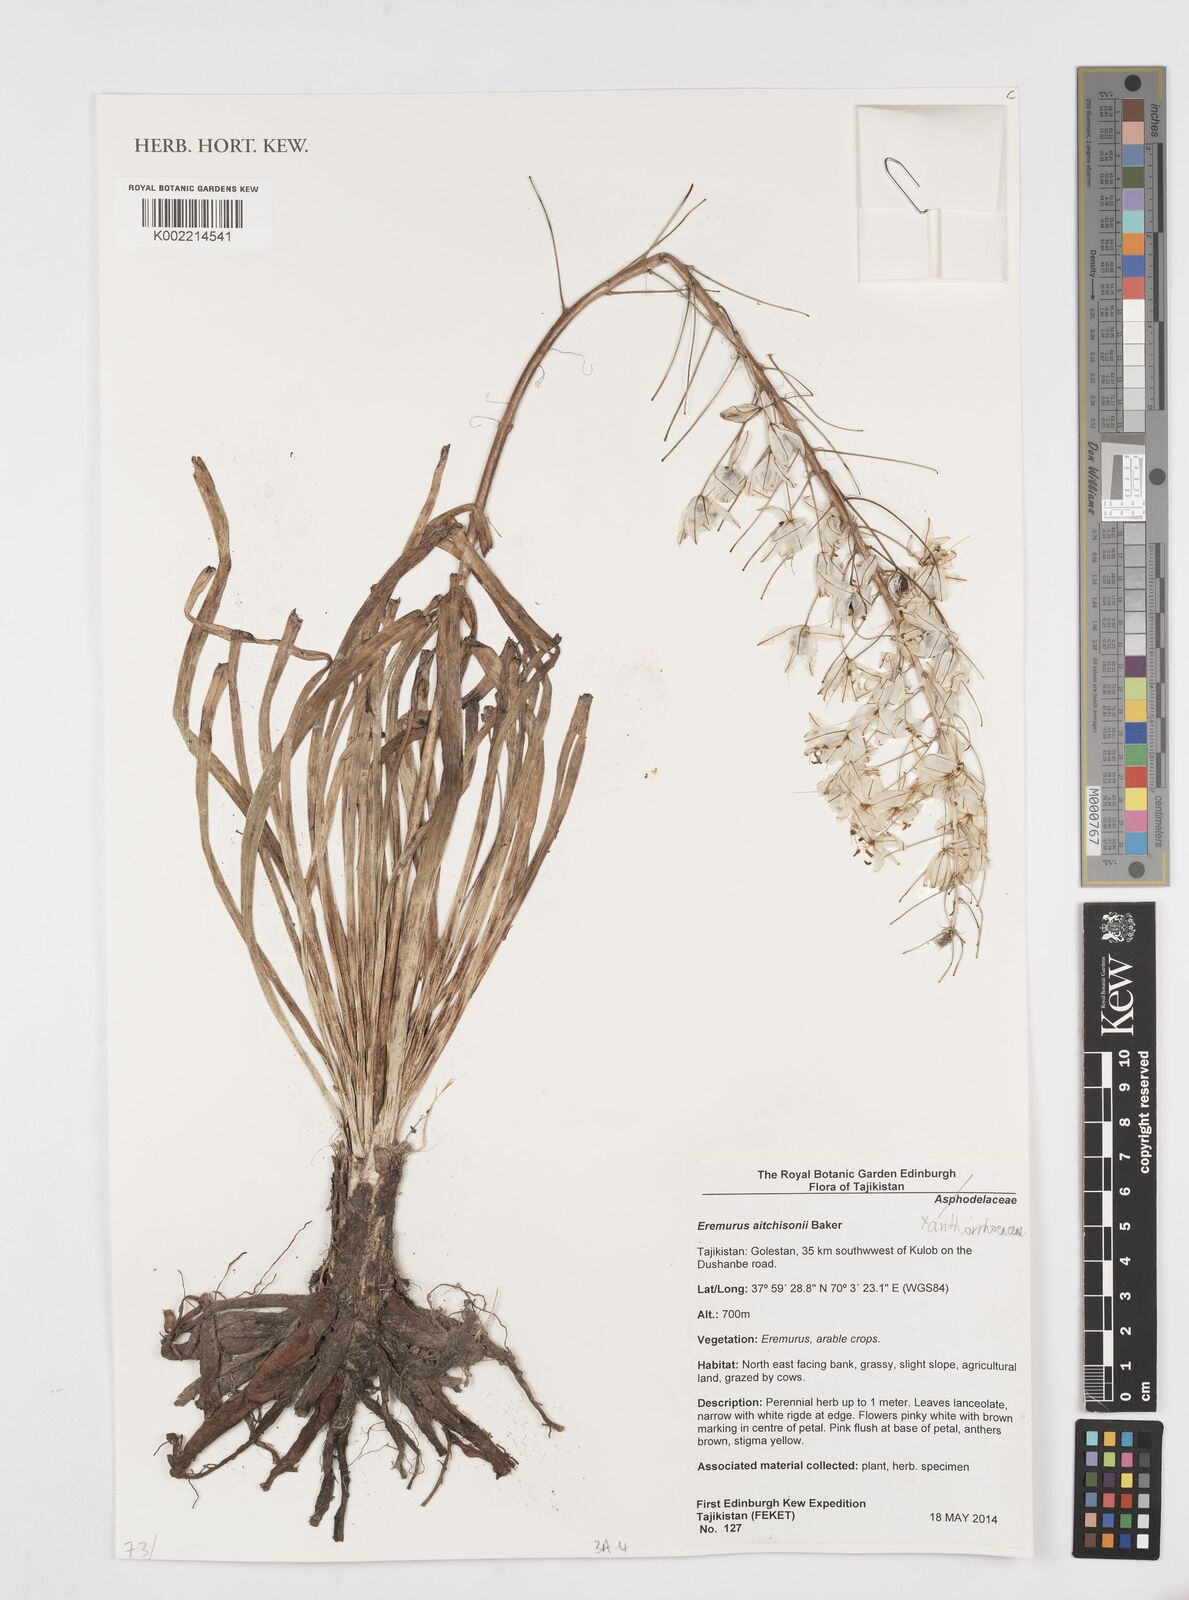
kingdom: Plantae
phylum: Tracheophyta
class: Liliopsida
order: Asparagales
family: Asphodelaceae
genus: Eremurus
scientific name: Eremurus aitchisonii
